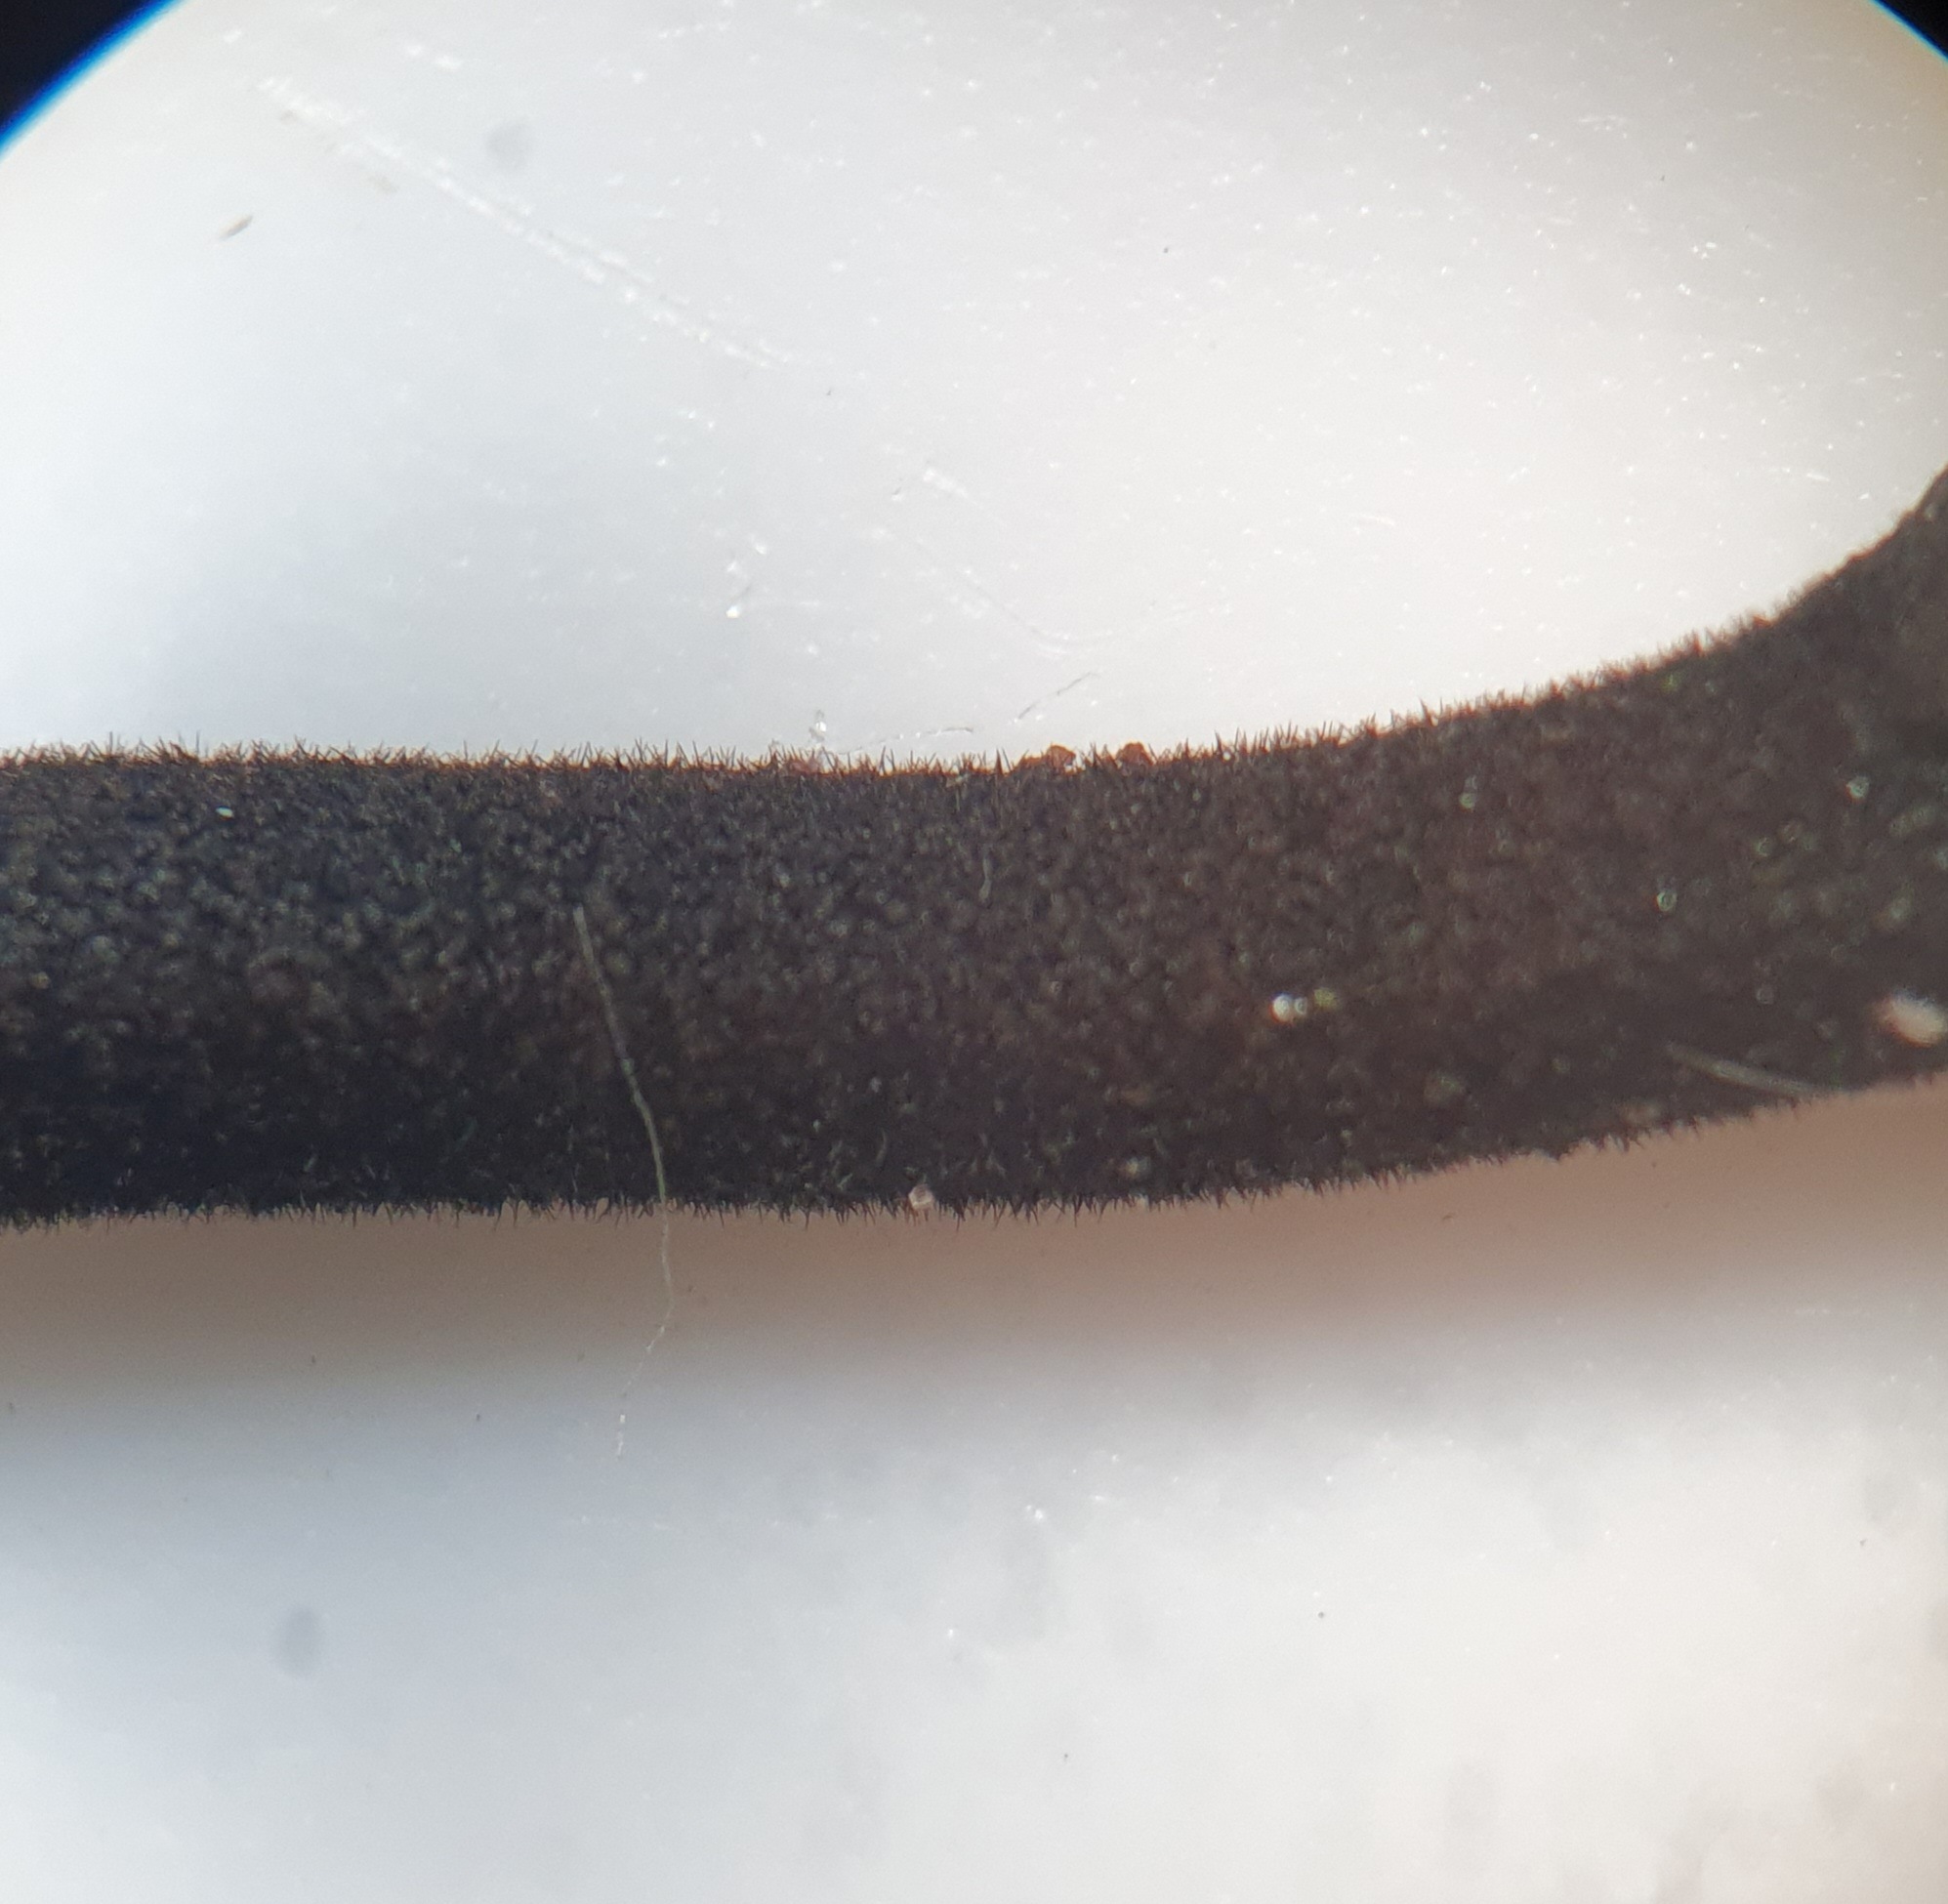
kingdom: Fungi
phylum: Ascomycota
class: Geoglossomycetes
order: Geoglossales
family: Geoglossaceae
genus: Trichoglossum
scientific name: Trichoglossum walteri
